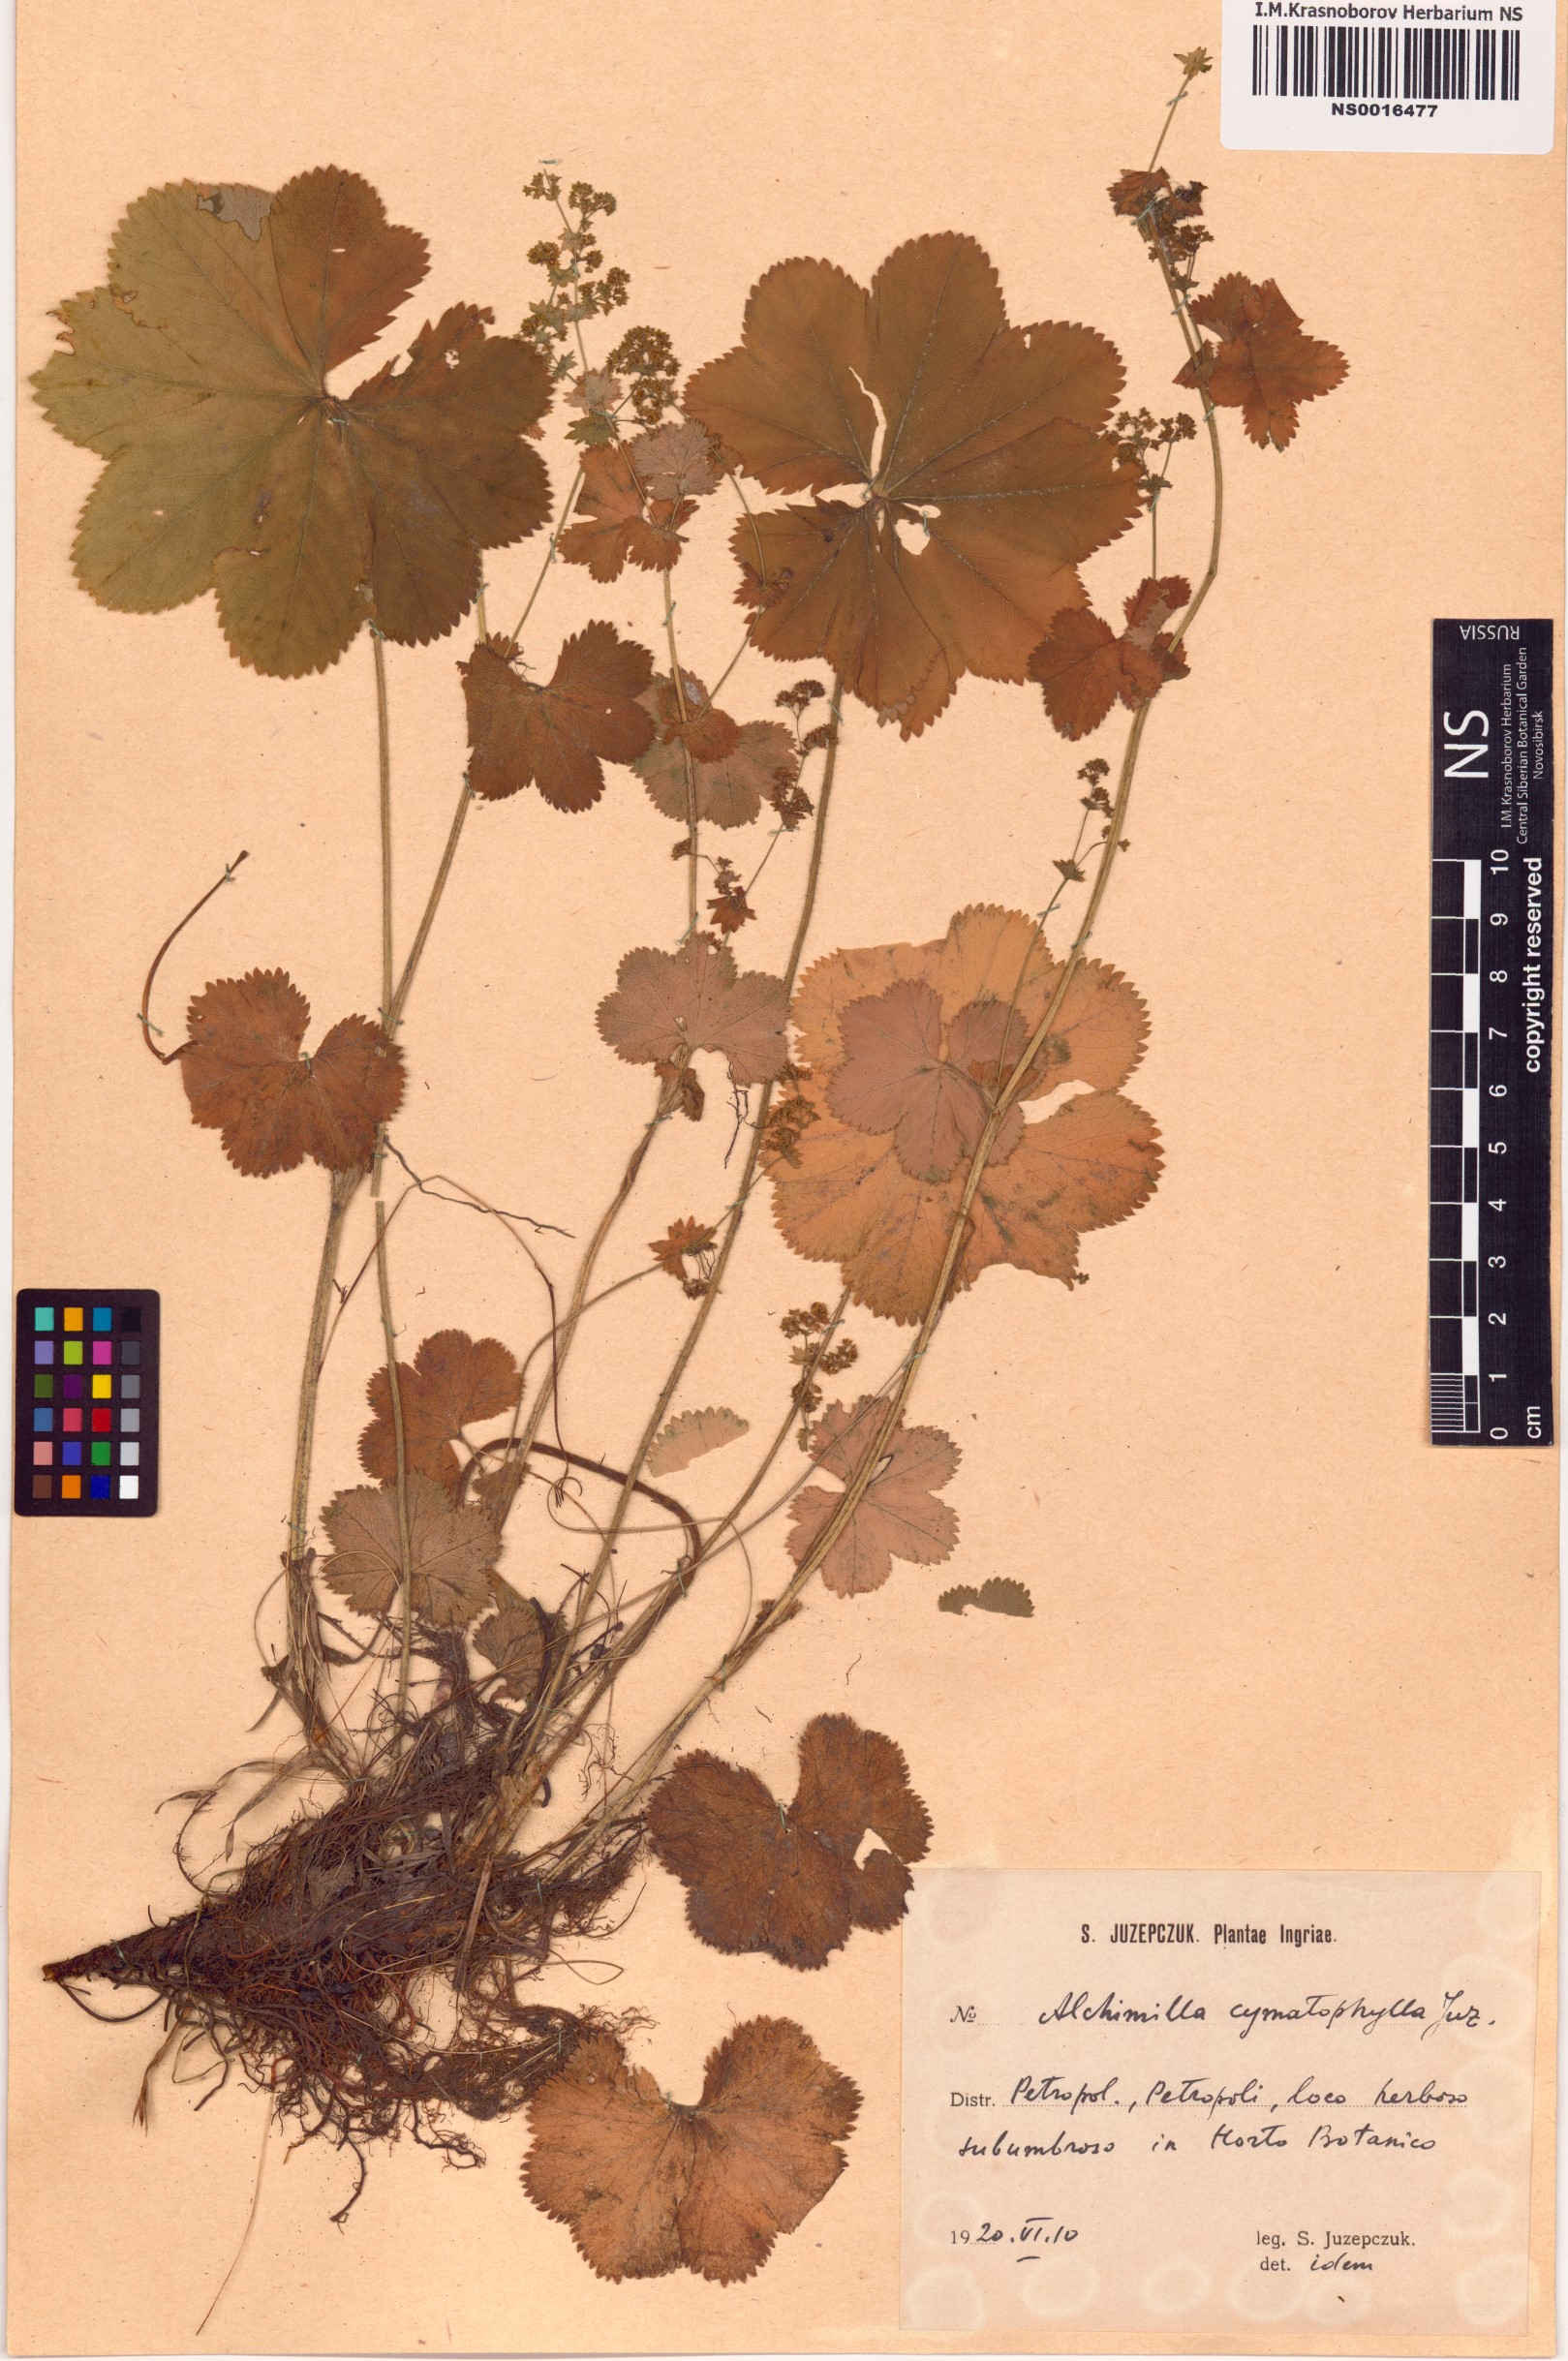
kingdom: Plantae
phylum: Tracheophyta
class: Magnoliopsida
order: Rosales
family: Rosaceae
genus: Alchemilla
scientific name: Alchemilla cymatophylla
